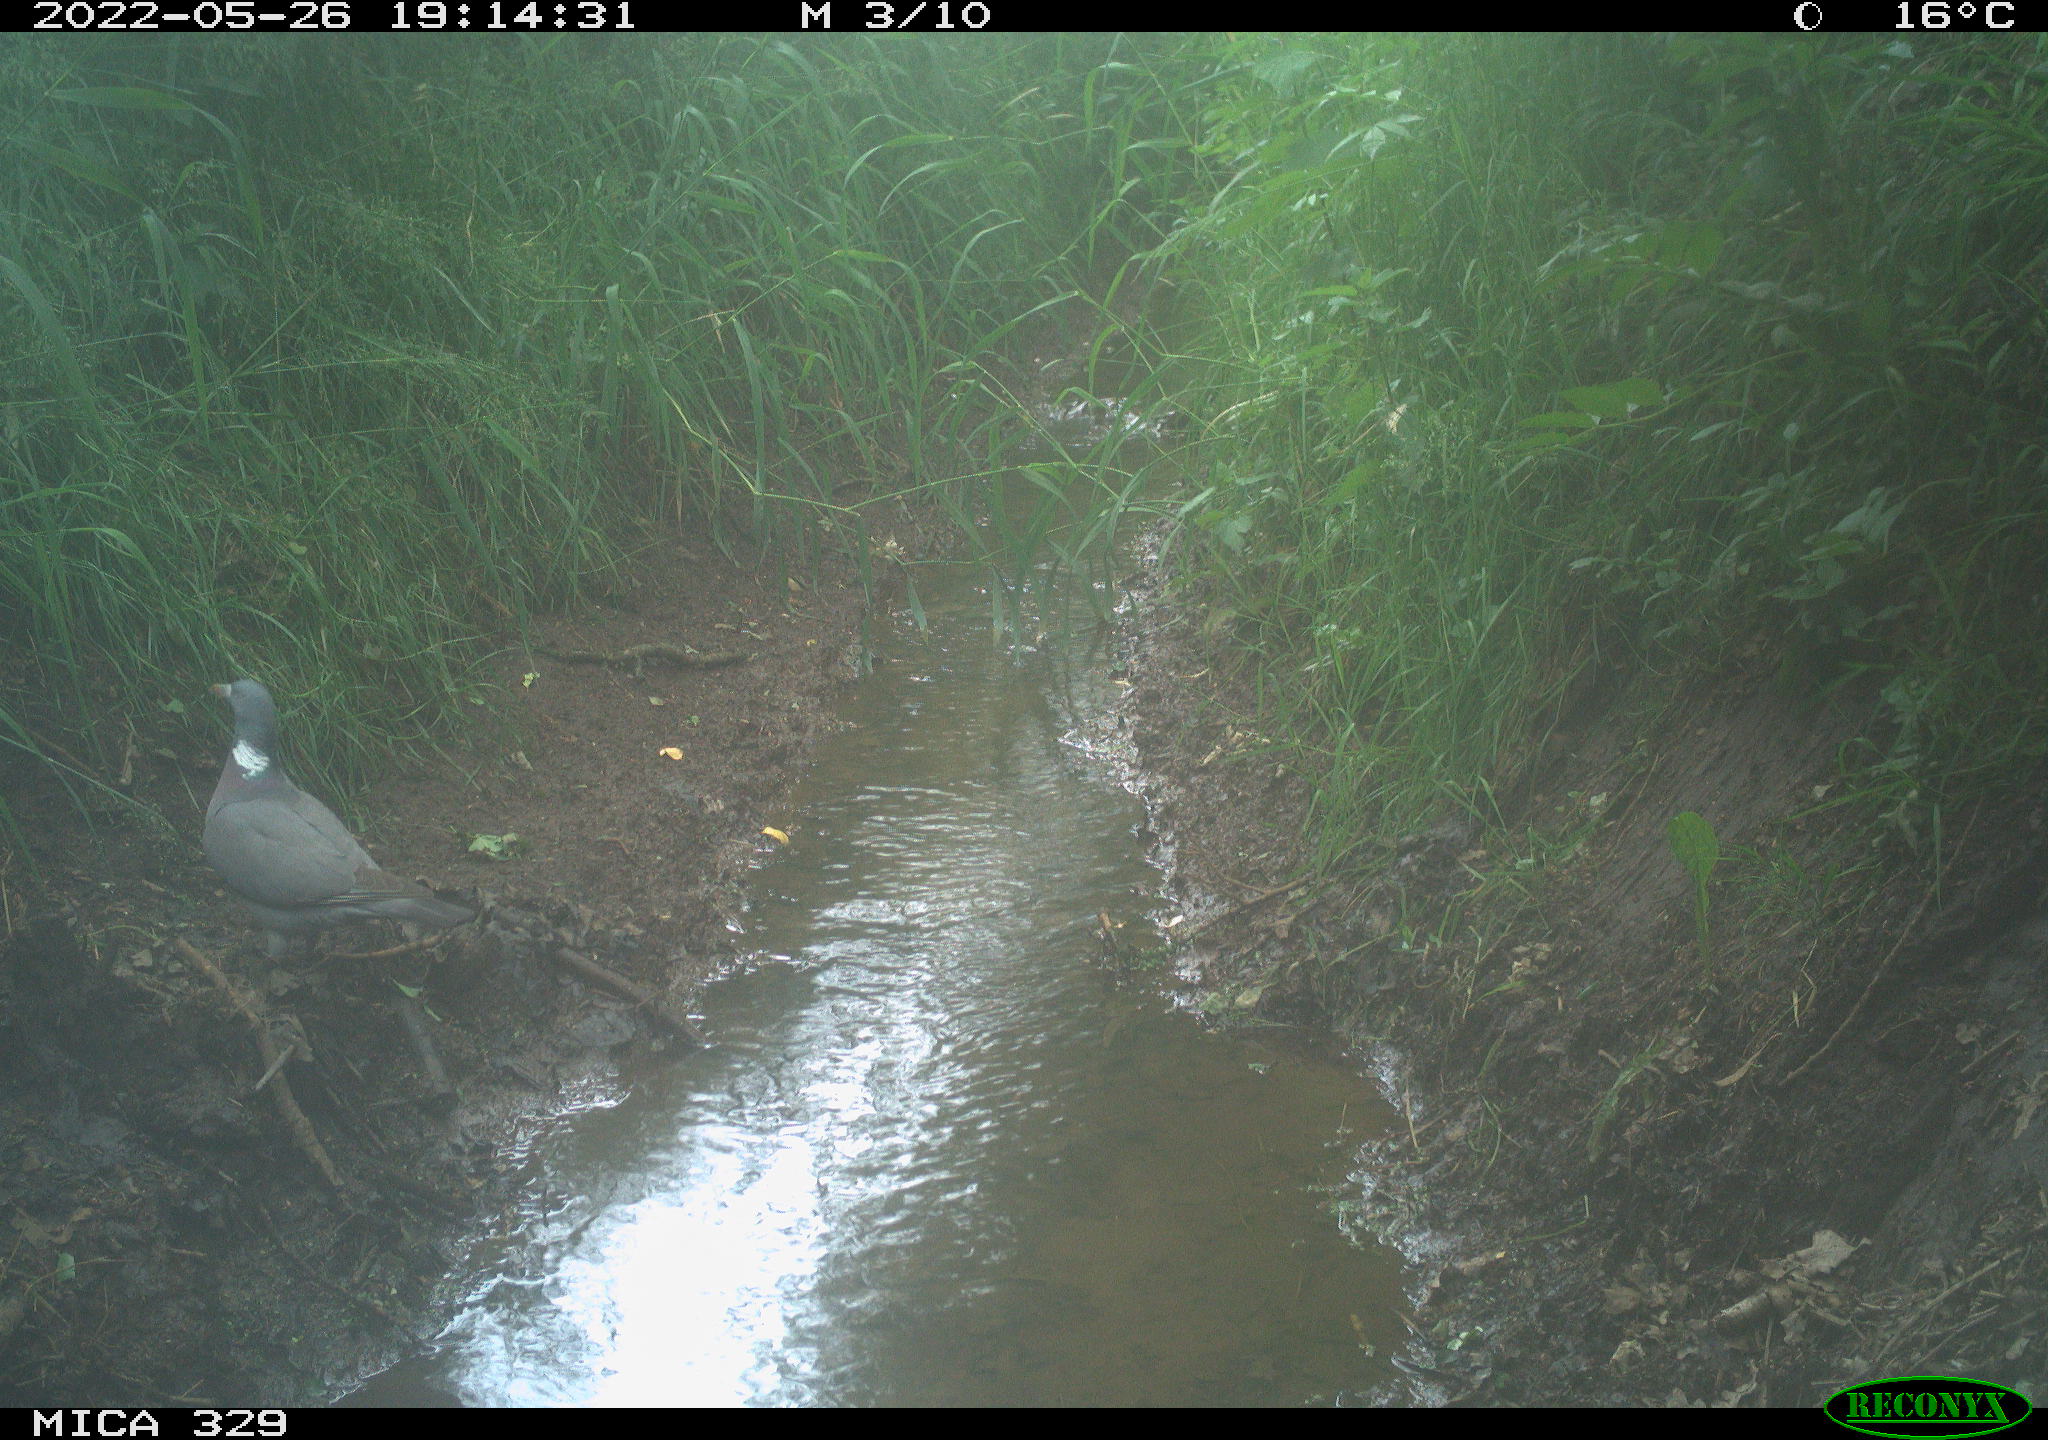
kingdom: Animalia
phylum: Chordata
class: Aves
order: Columbiformes
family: Columbidae
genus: Columba
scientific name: Columba palumbus
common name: Common wood pigeon
